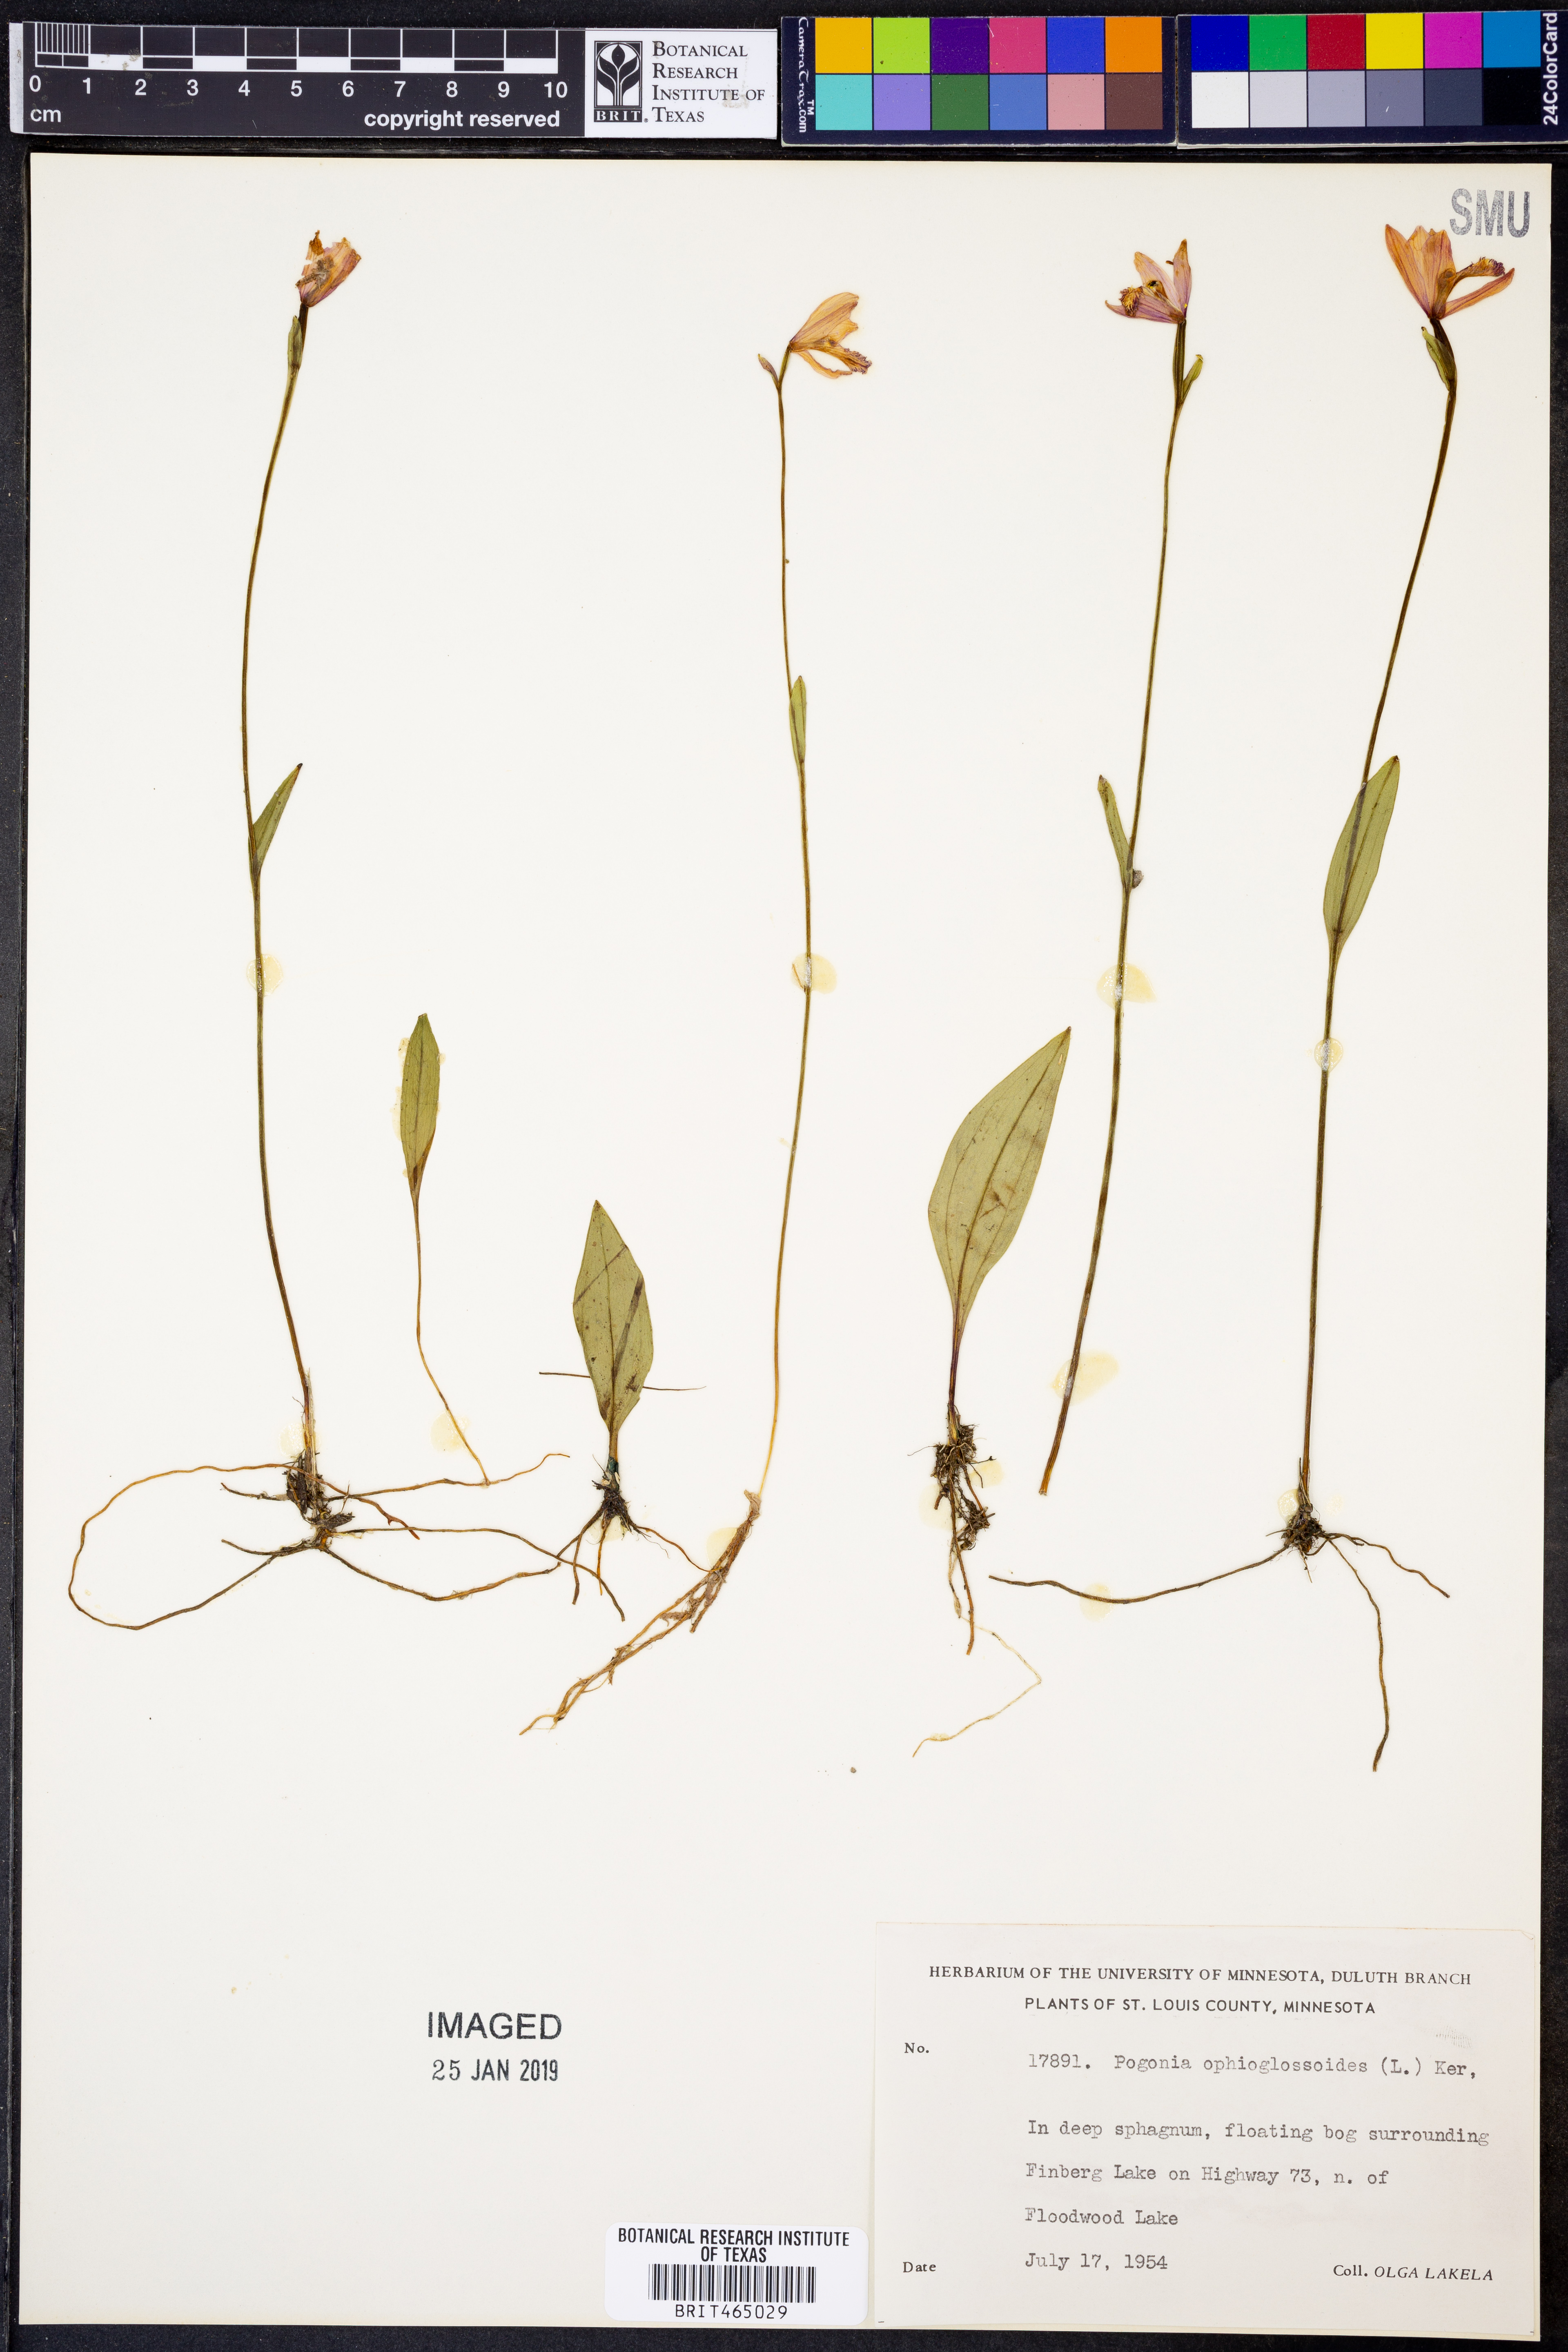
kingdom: Plantae
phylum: Tracheophyta
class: Liliopsida
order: Asparagales
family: Orchidaceae
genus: Pogonia
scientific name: Pogonia ophioglossoides
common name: Rose pogonia
